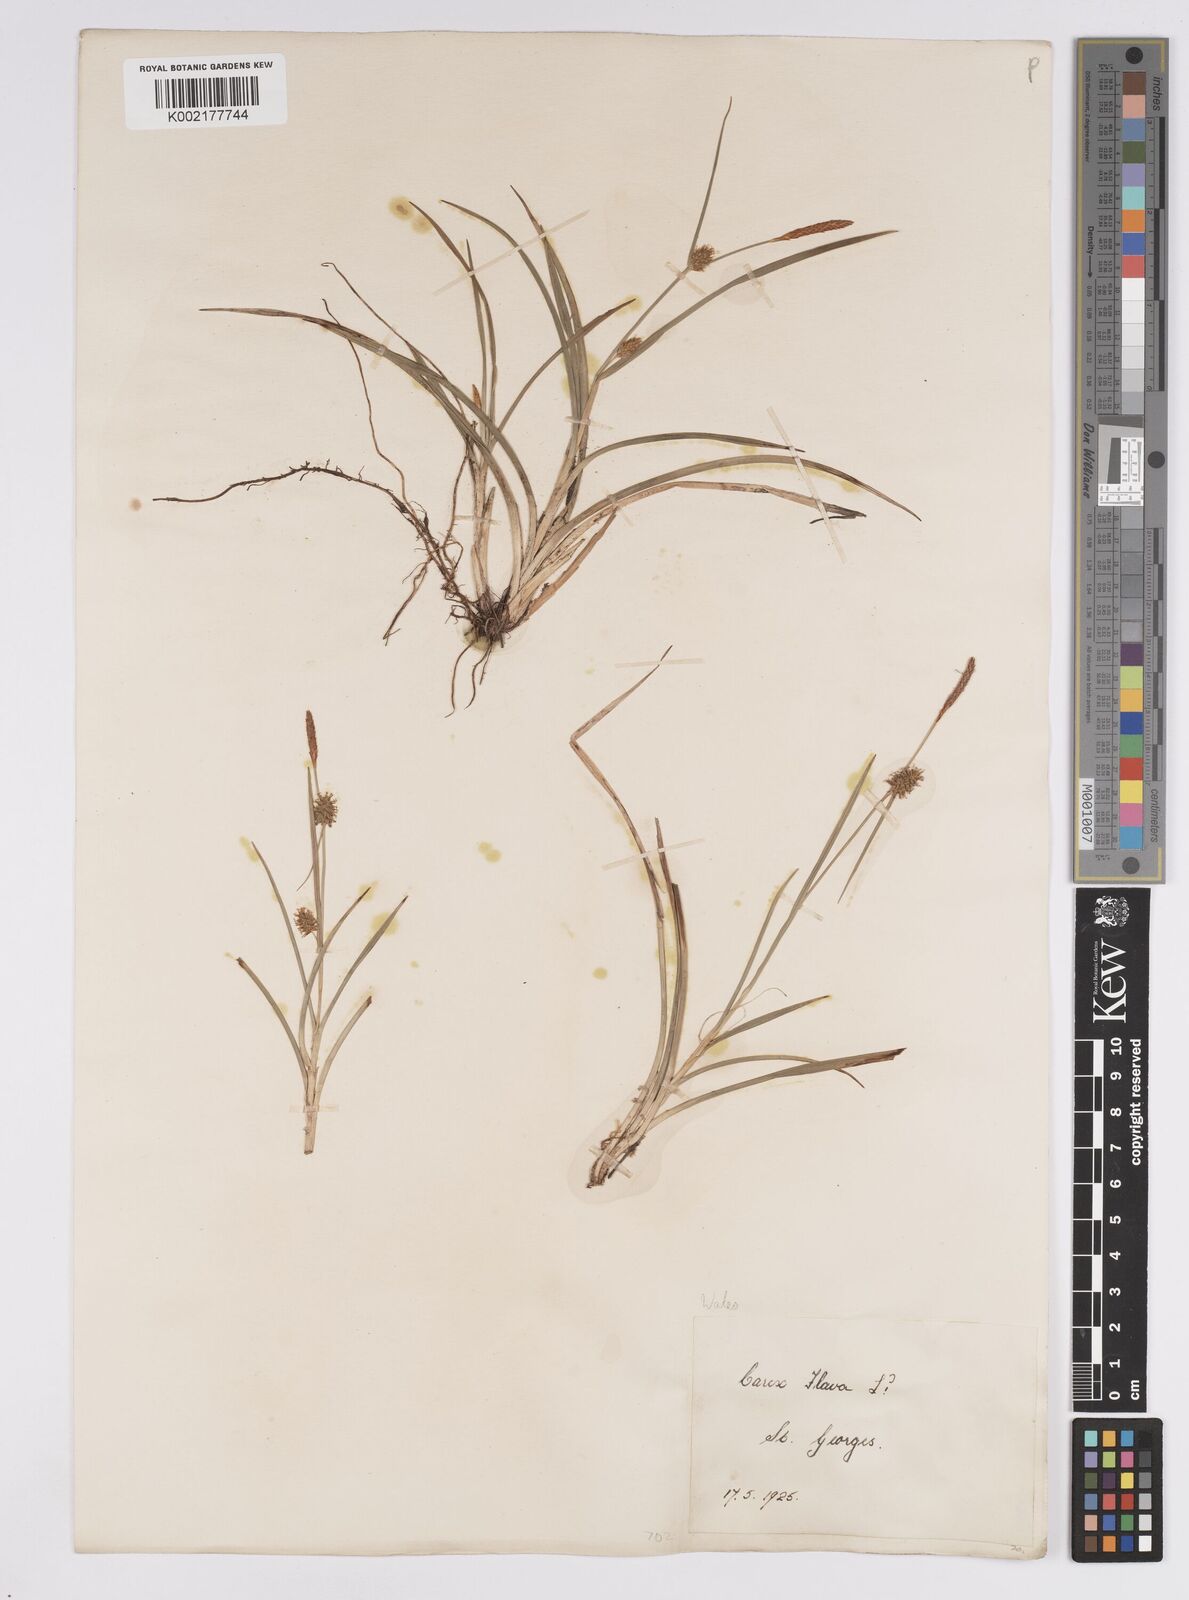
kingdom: Plantae
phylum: Tracheophyta
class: Liliopsida
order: Poales
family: Cyperaceae
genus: Carex
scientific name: Carex flava
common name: Large yellow-sedge
